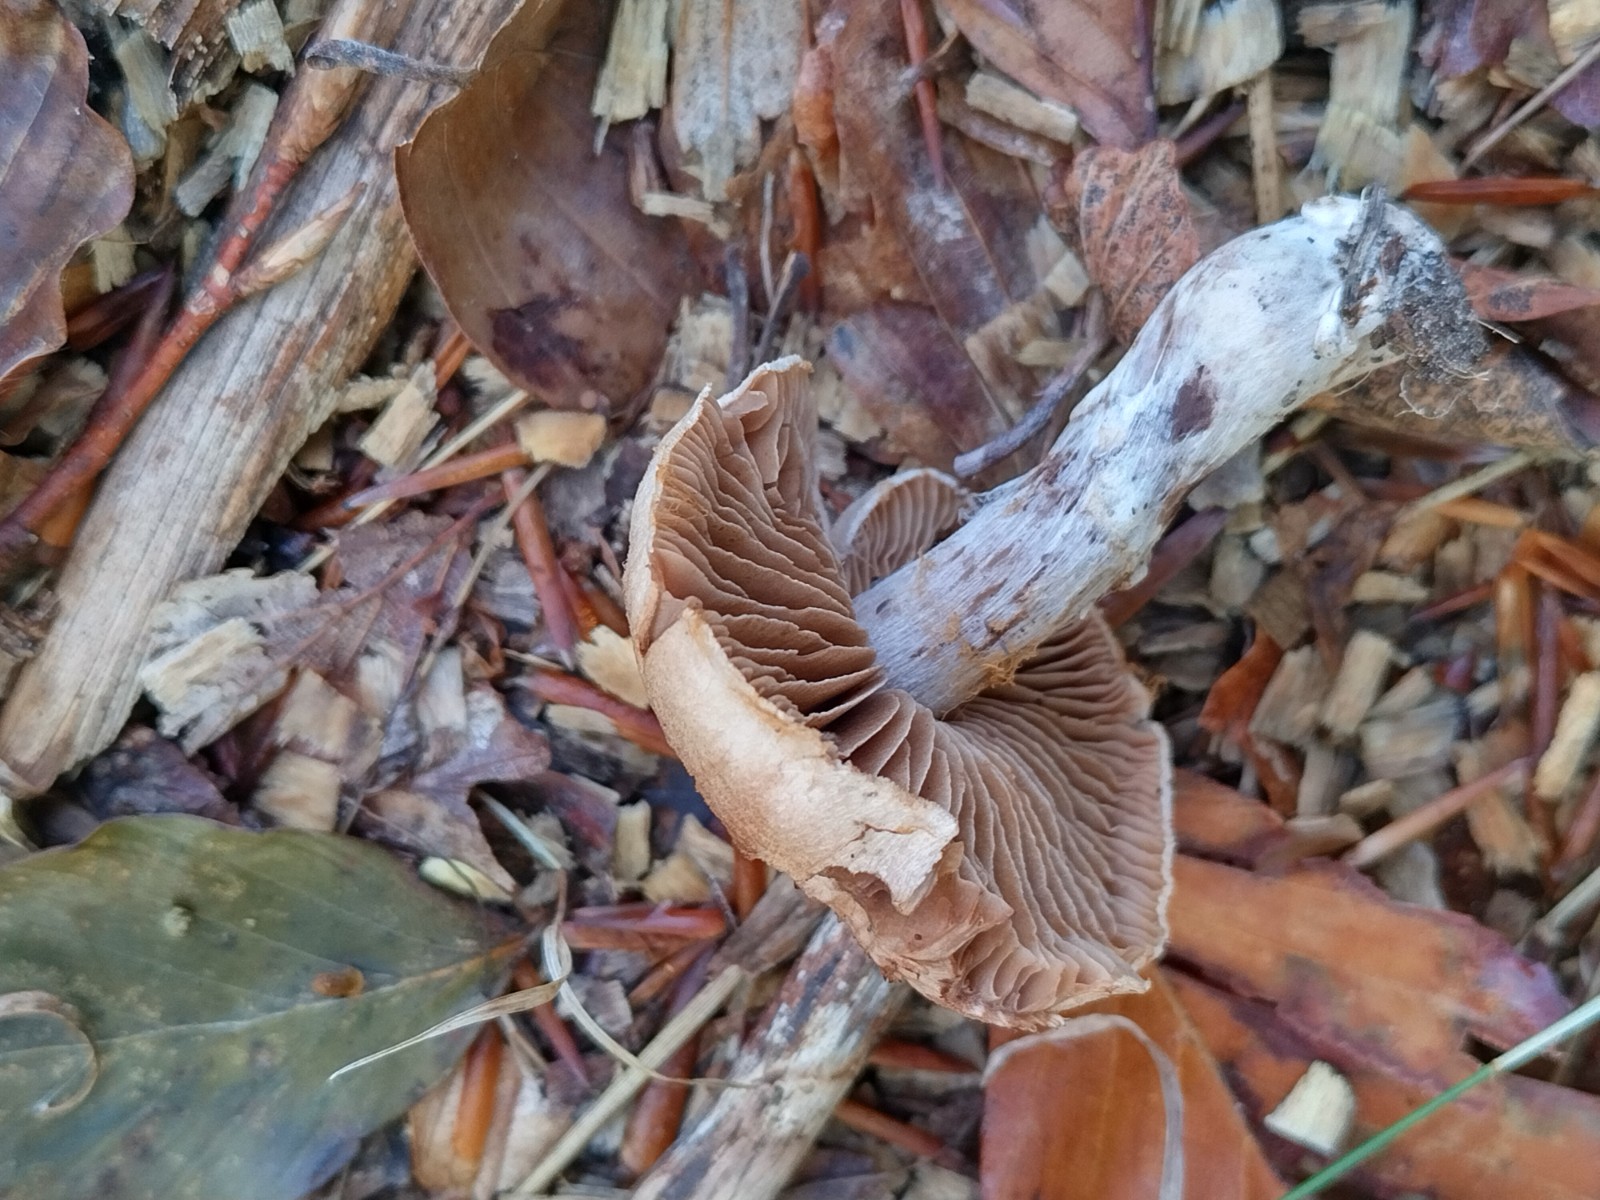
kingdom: Fungi
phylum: Basidiomycota
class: Agaricomycetes
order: Agaricales
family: Cortinariaceae
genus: Cortinarius
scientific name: Cortinarius torvus
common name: champignonagtig slørhat
